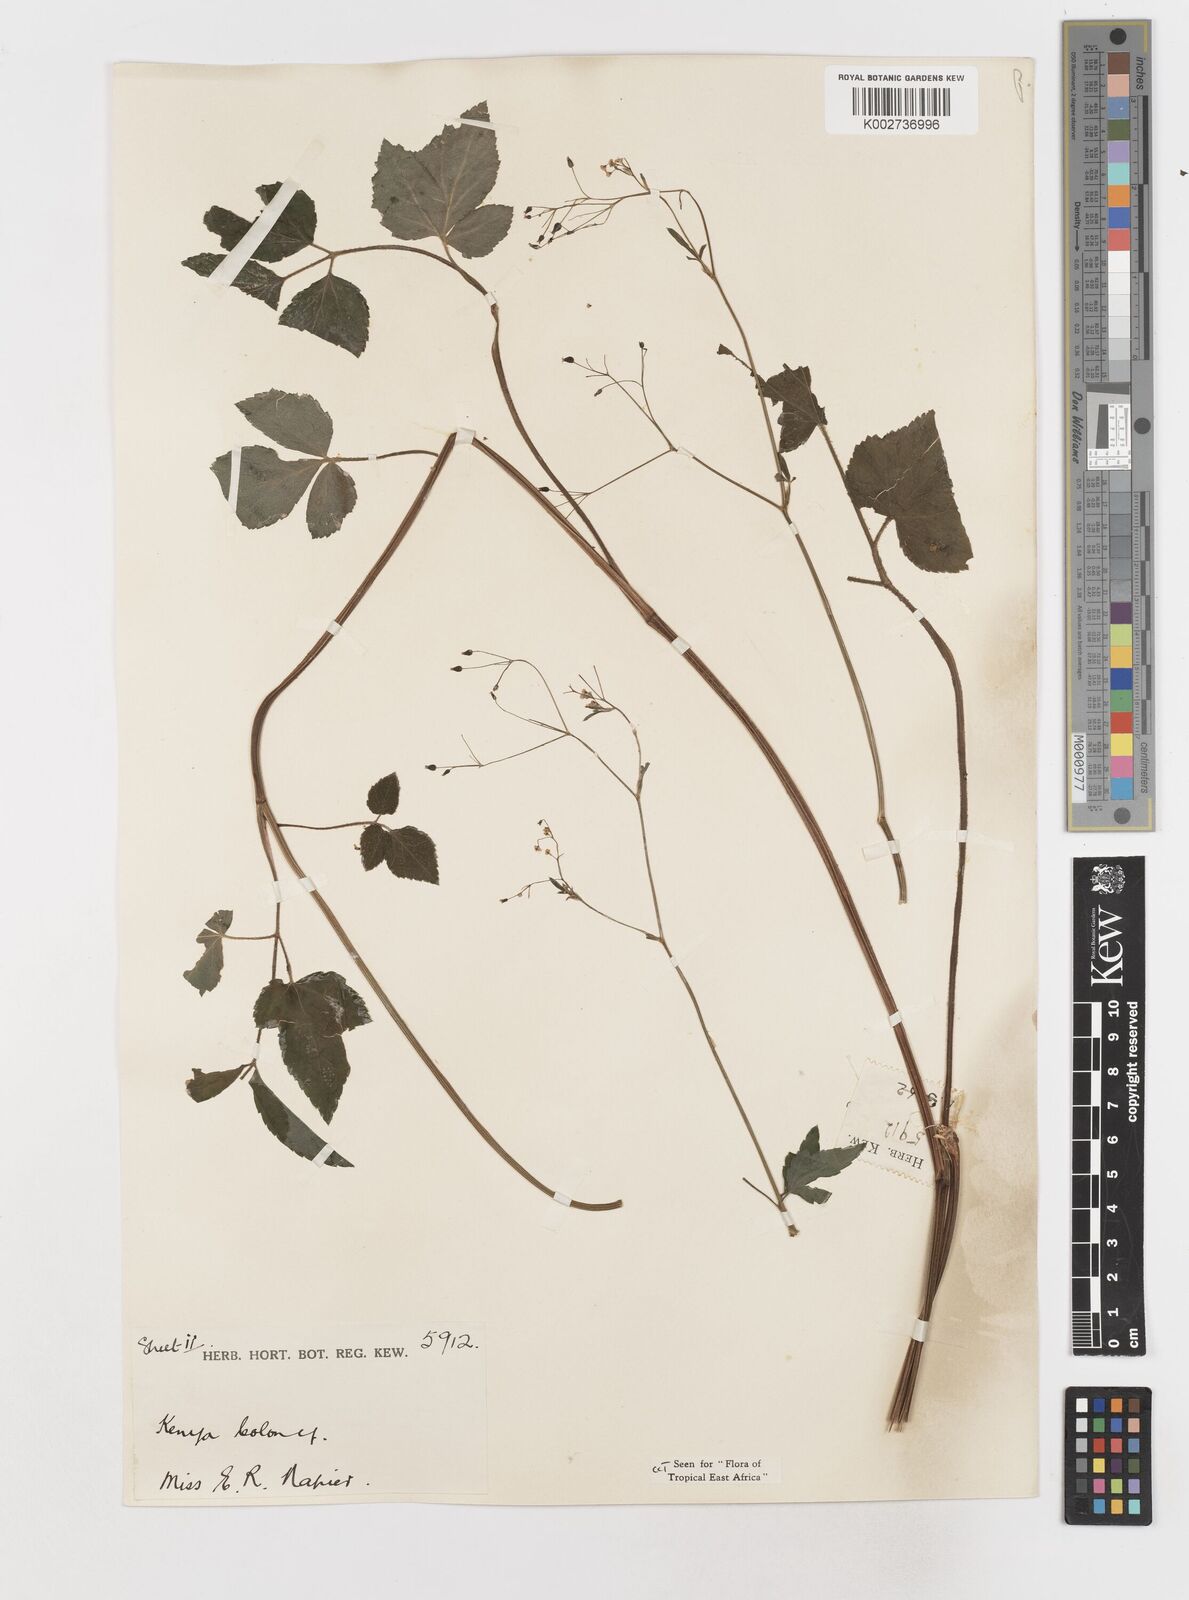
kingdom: Plantae
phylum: Tracheophyta
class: Magnoliopsida
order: Apiales
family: Apiaceae
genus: Cryptotaenia
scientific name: Cryptotaenia africana
